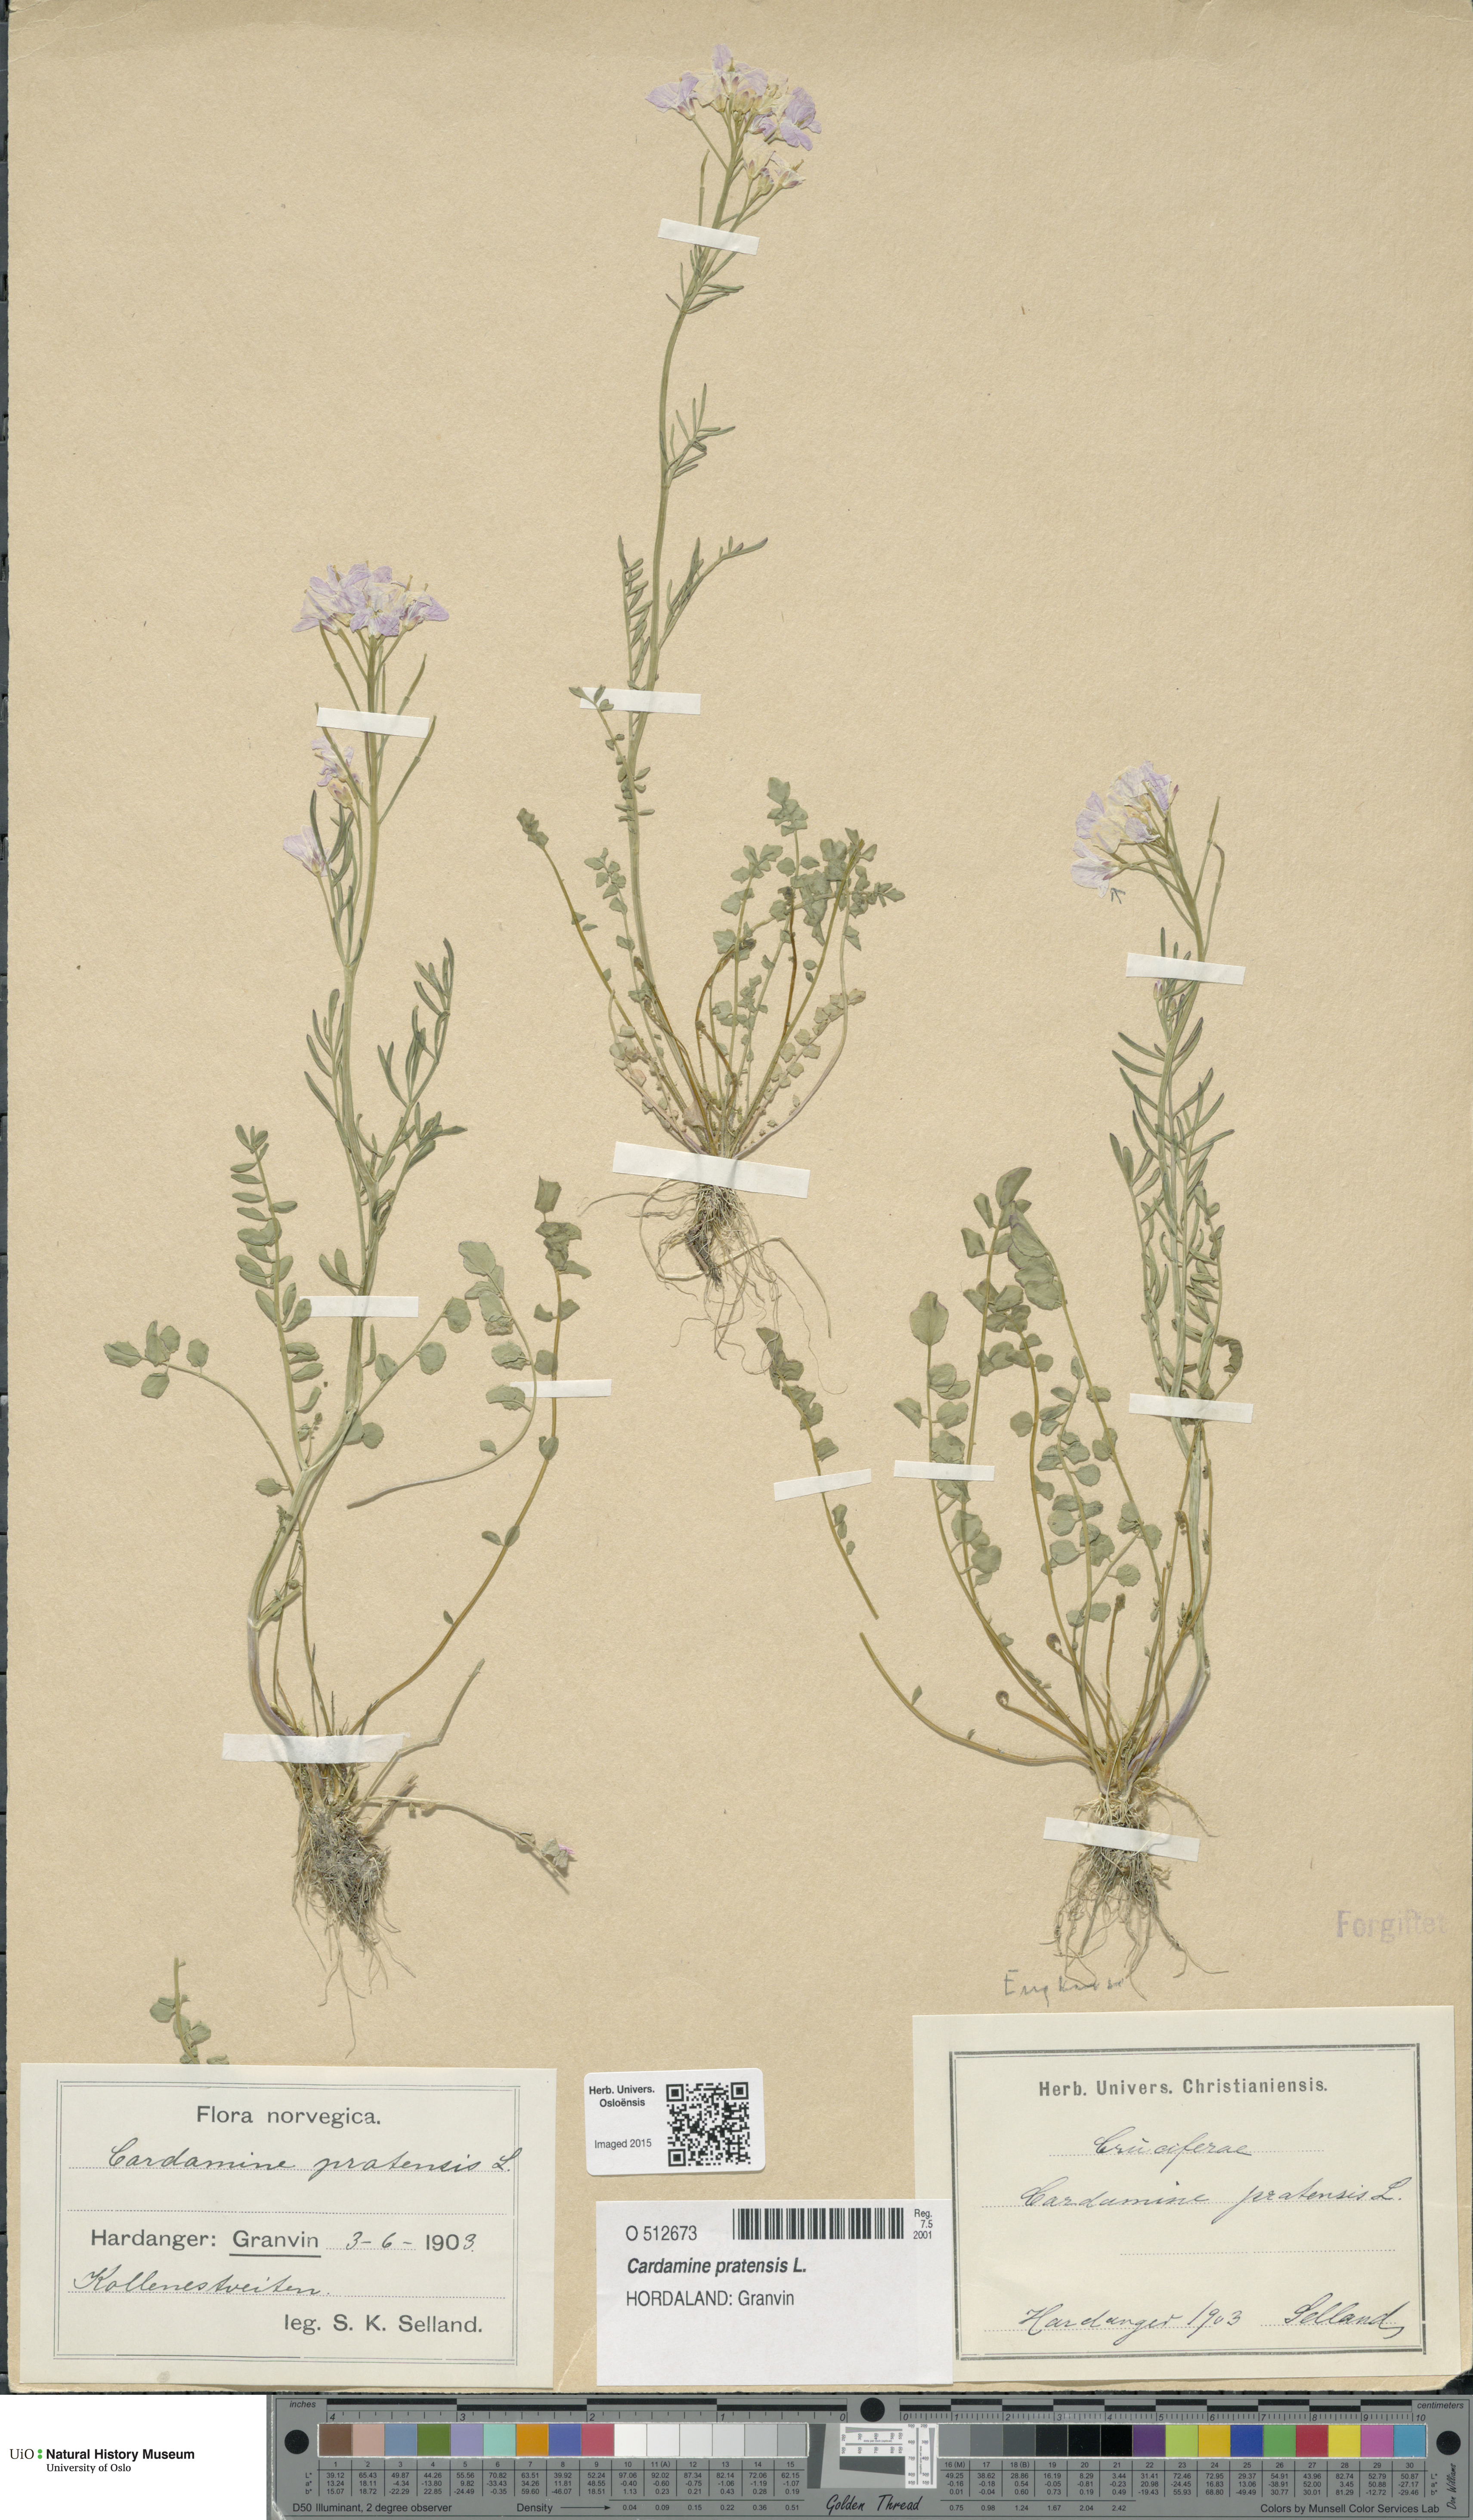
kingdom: Plantae
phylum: Tracheophyta
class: Magnoliopsida
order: Brassicales
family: Brassicaceae
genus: Cardamine
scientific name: Cardamine pratensis
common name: Cuckoo flower
